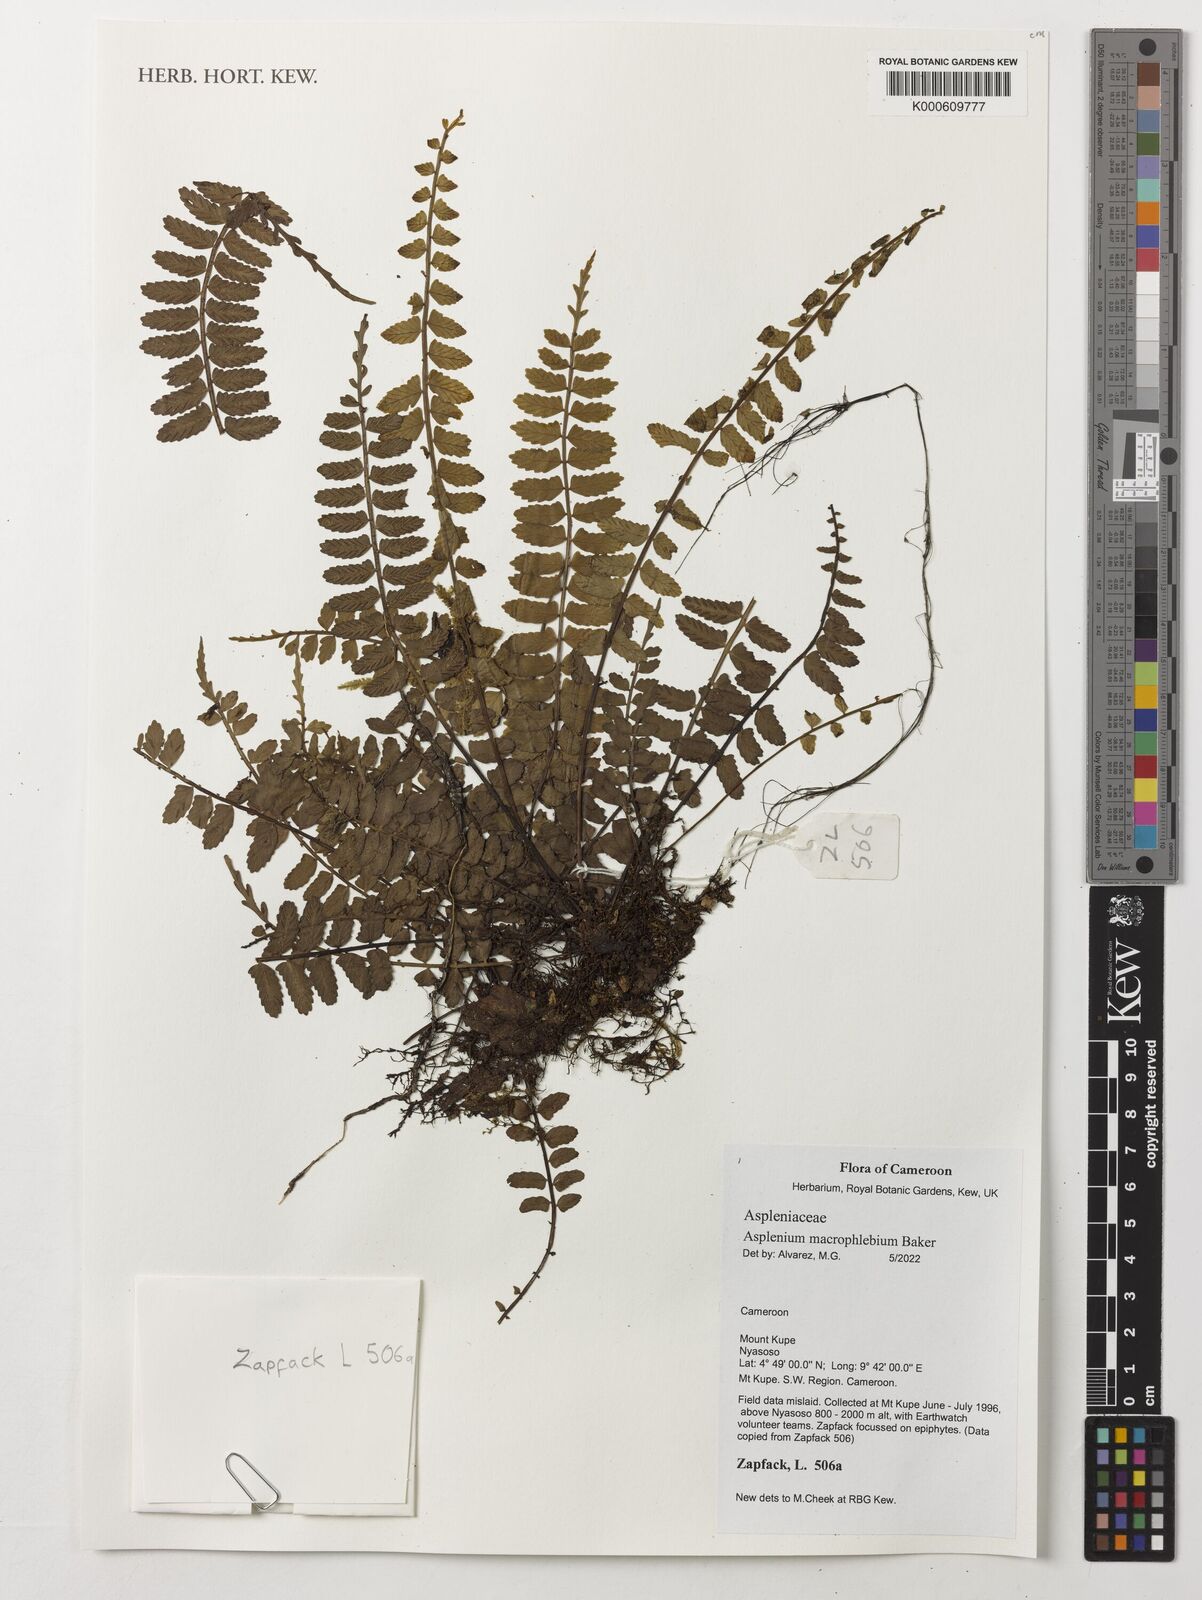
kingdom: Plantae
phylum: Tracheophyta
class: Polypodiopsida
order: Polypodiales
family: Aspleniaceae
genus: Asplenium
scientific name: Asplenium macrophlebium
